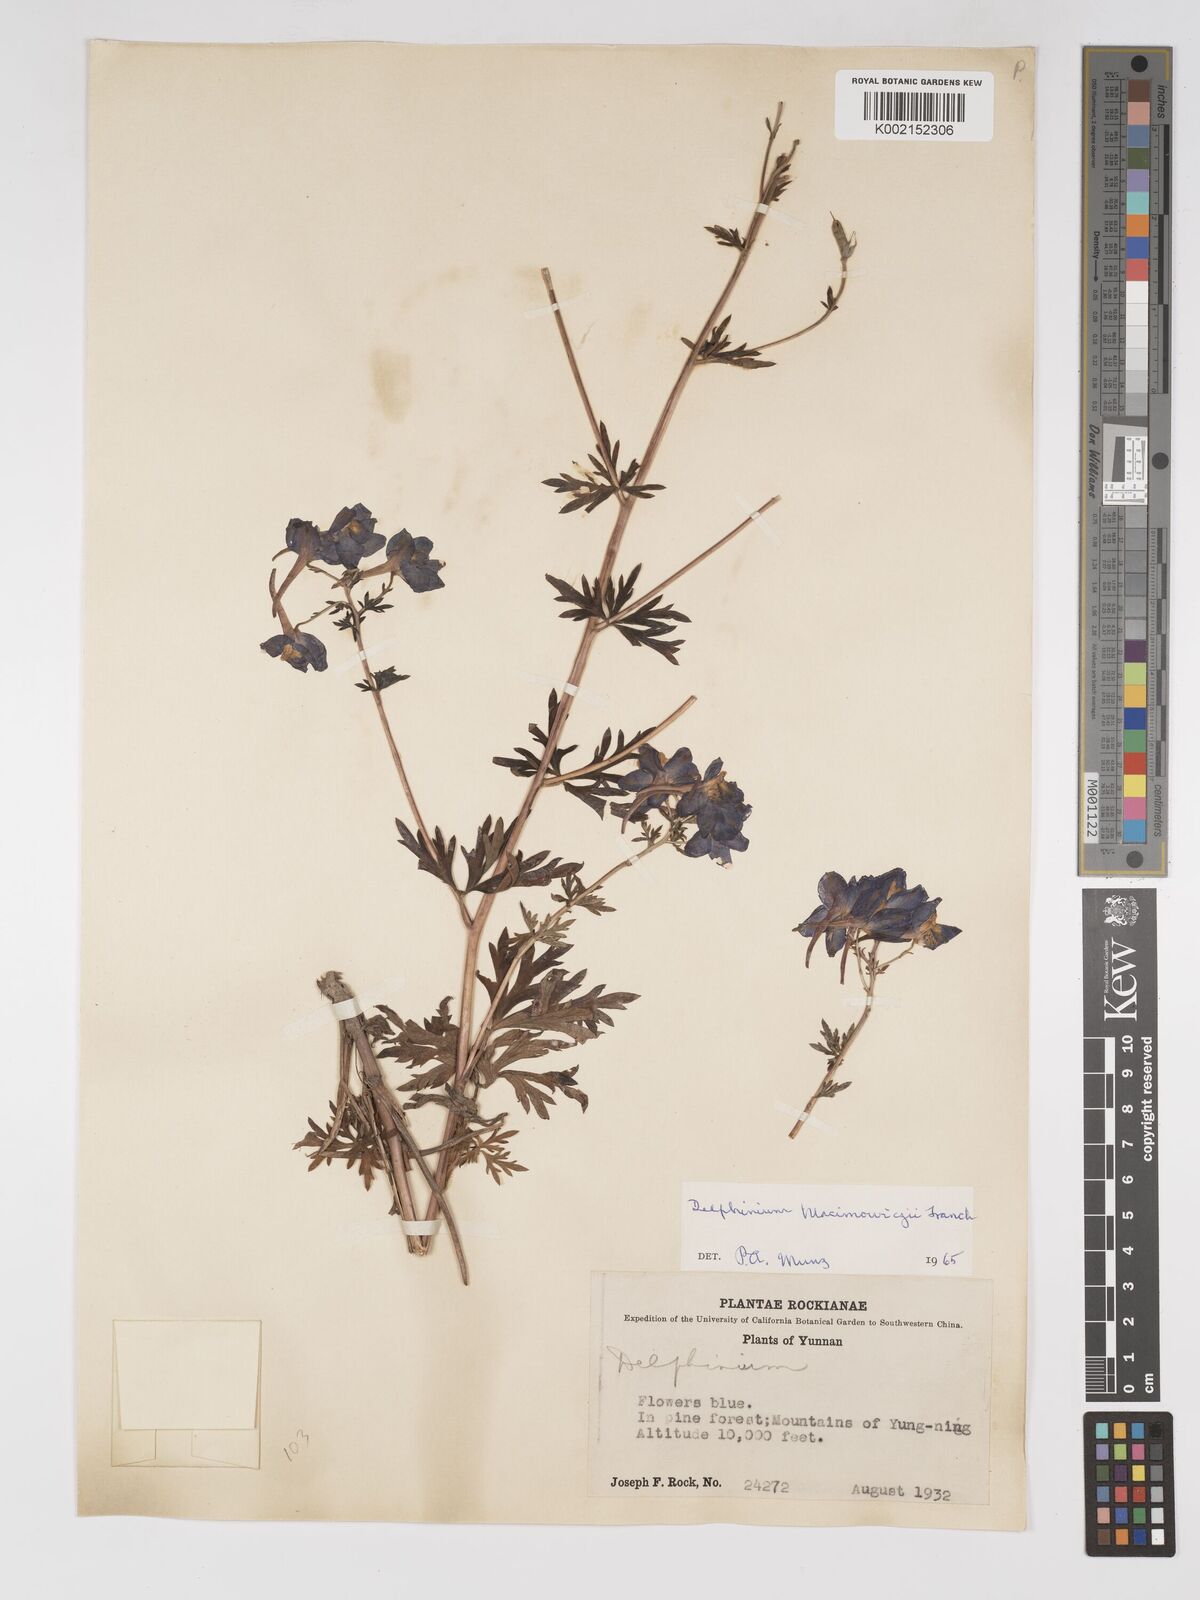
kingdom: Plantae
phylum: Tracheophyta
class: Magnoliopsida
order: Ranunculales
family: Ranunculaceae
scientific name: Ranunculaceae
